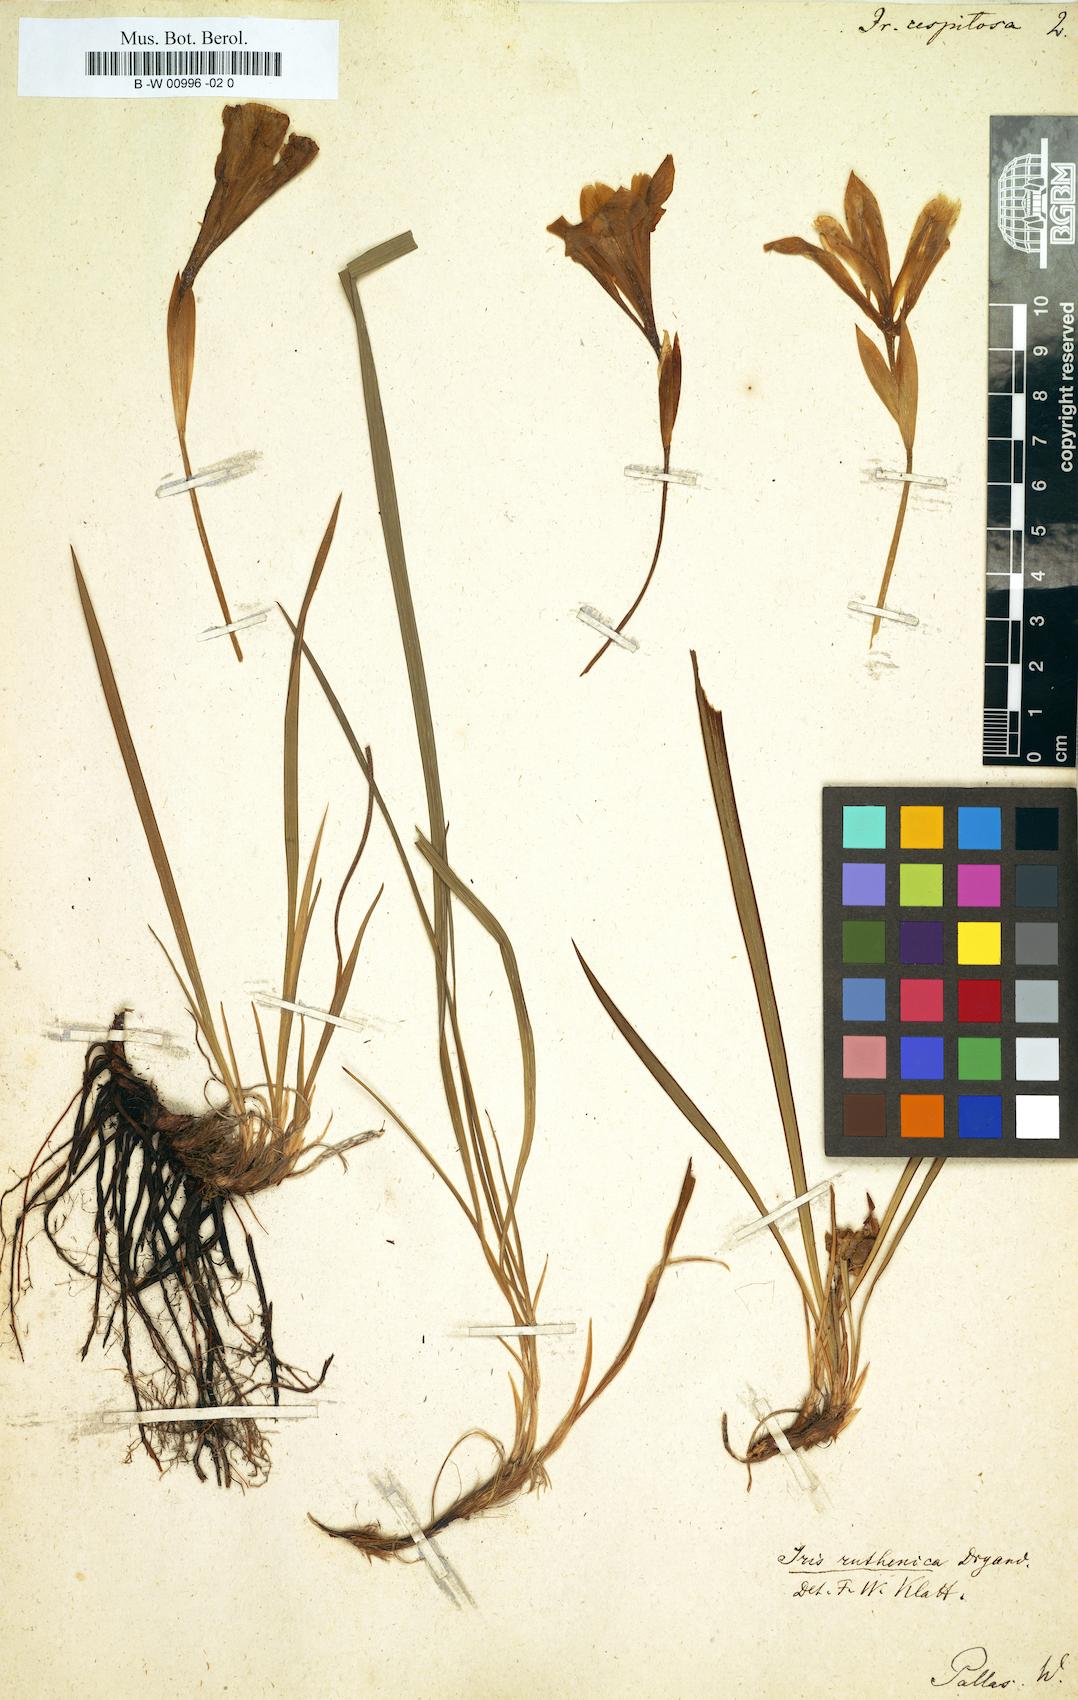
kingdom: Plantae
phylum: Tracheophyta
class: Liliopsida
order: Asparagales
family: Iridaceae
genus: Iris
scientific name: Iris ruthenica
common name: Purple-bract iris
